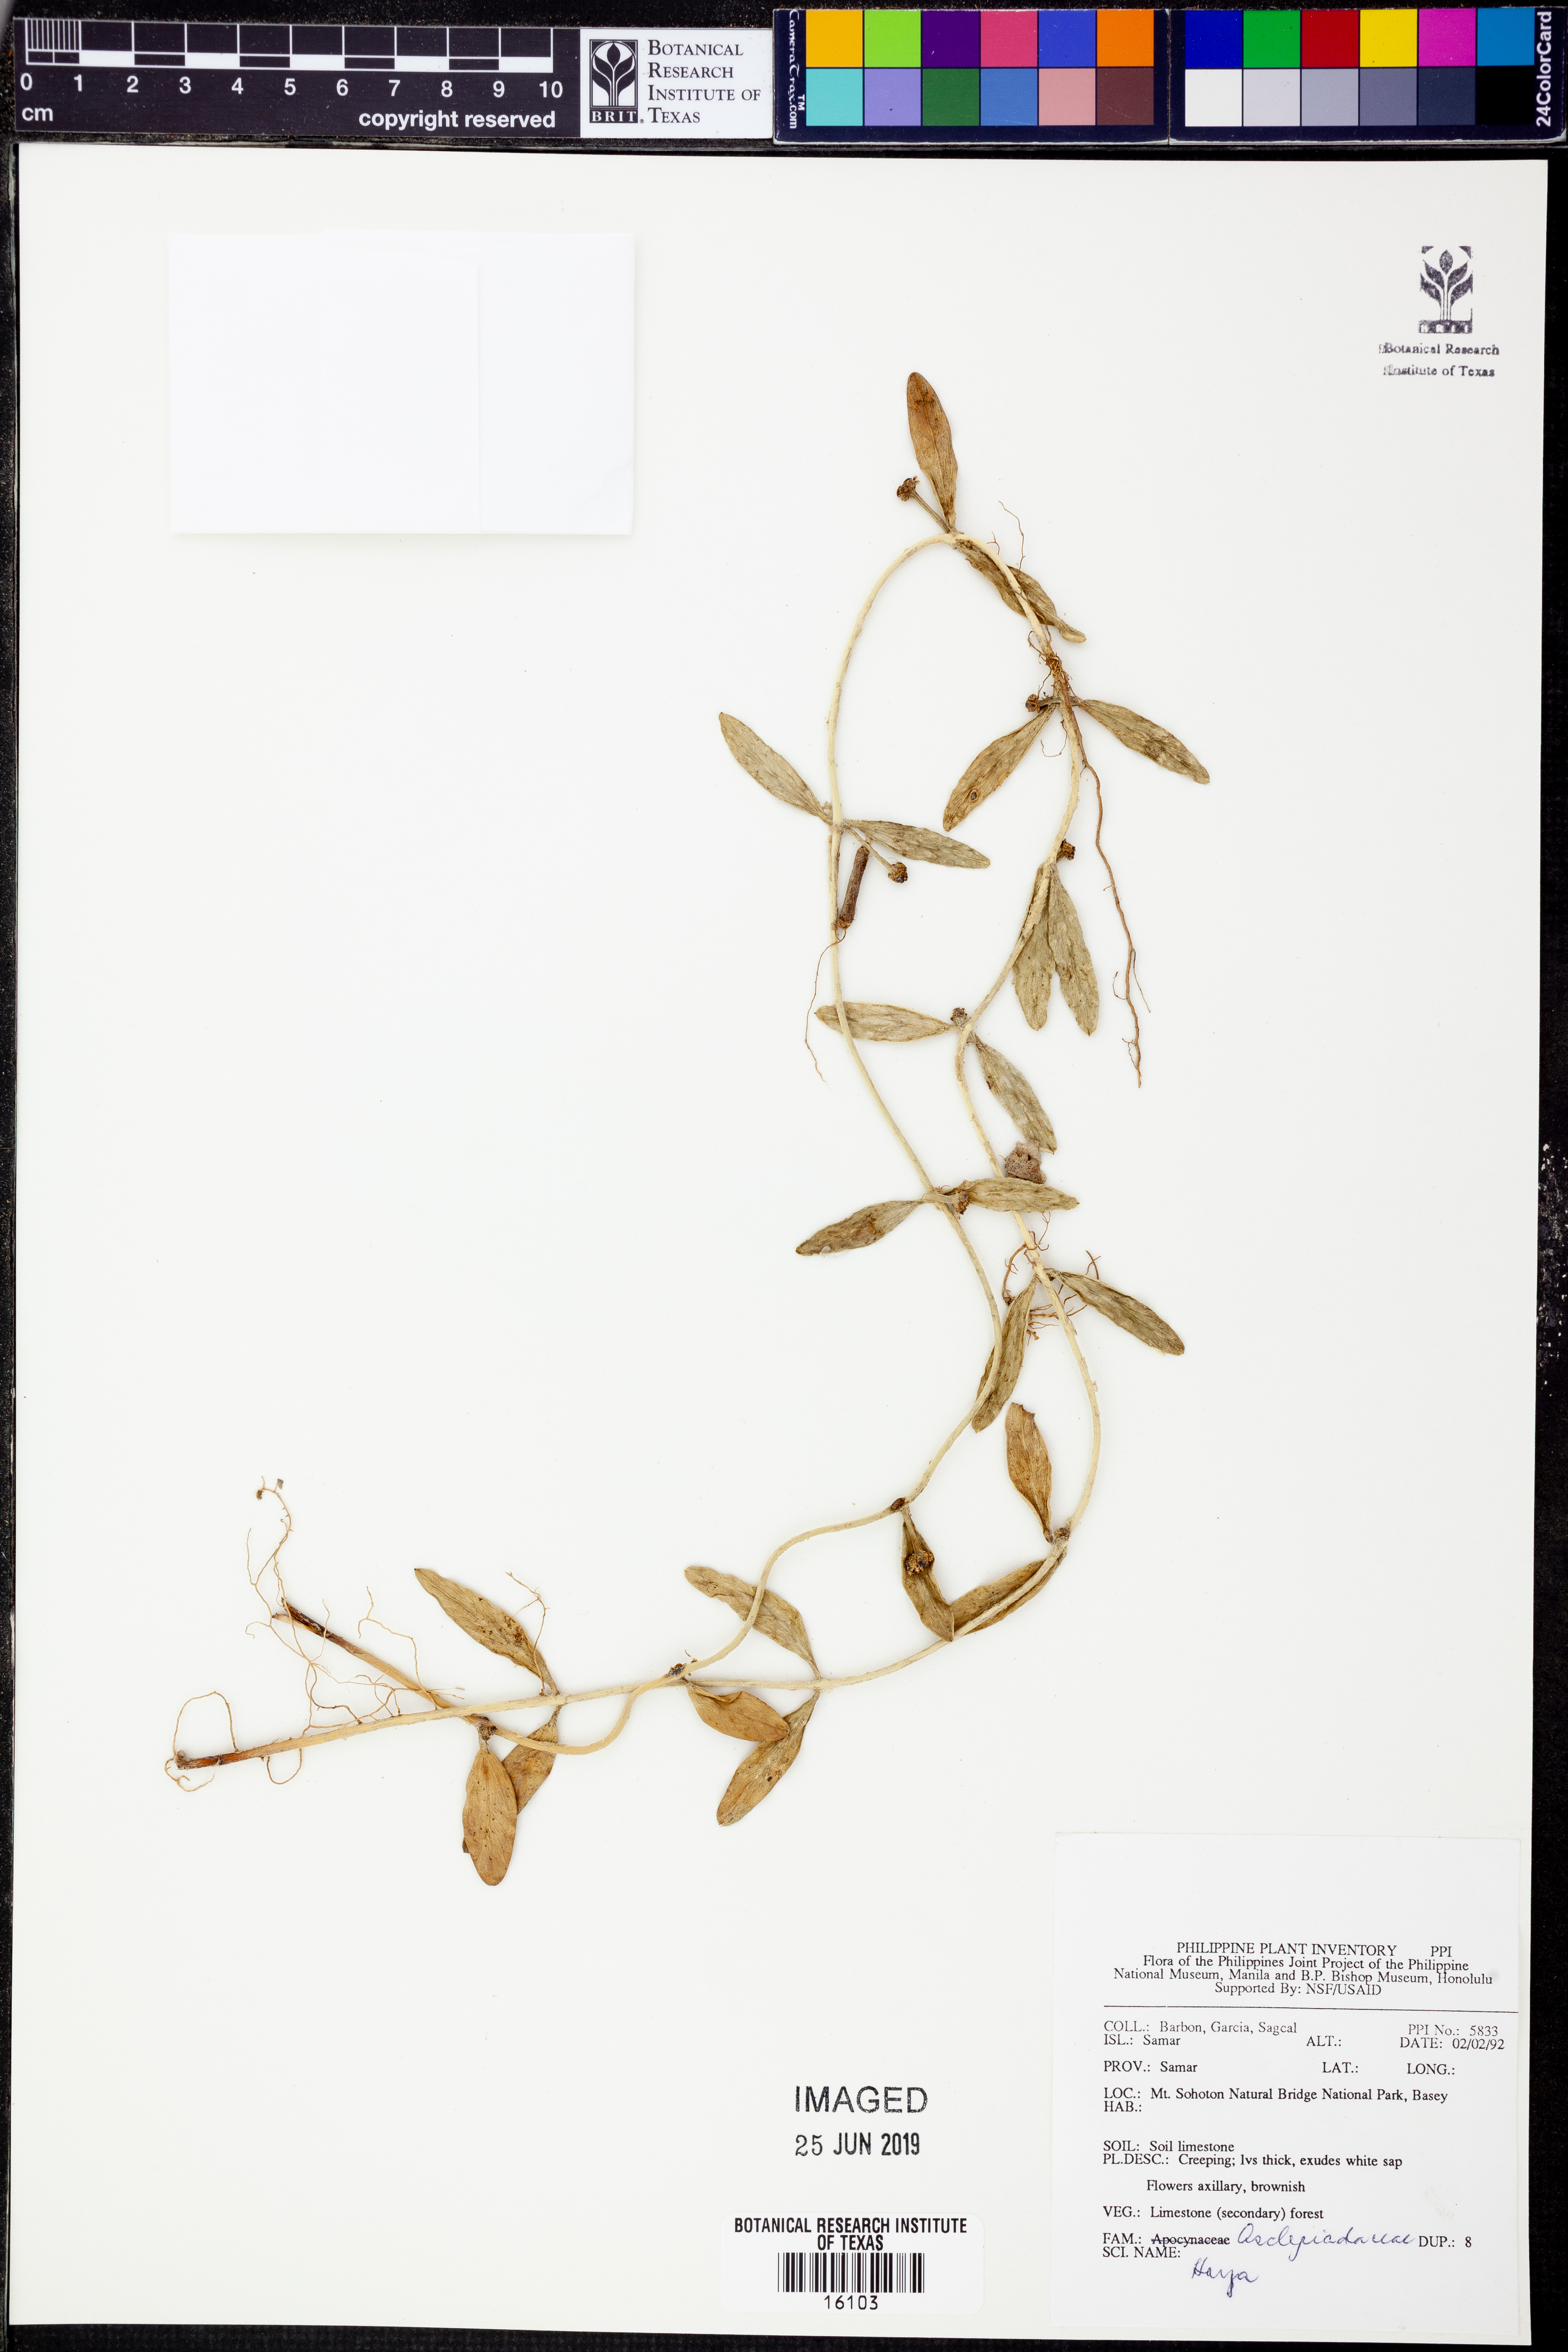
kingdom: Plantae
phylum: Tracheophyta
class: Magnoliopsida
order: Gentianales
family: Apocynaceae
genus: Hoya
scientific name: Hoya
